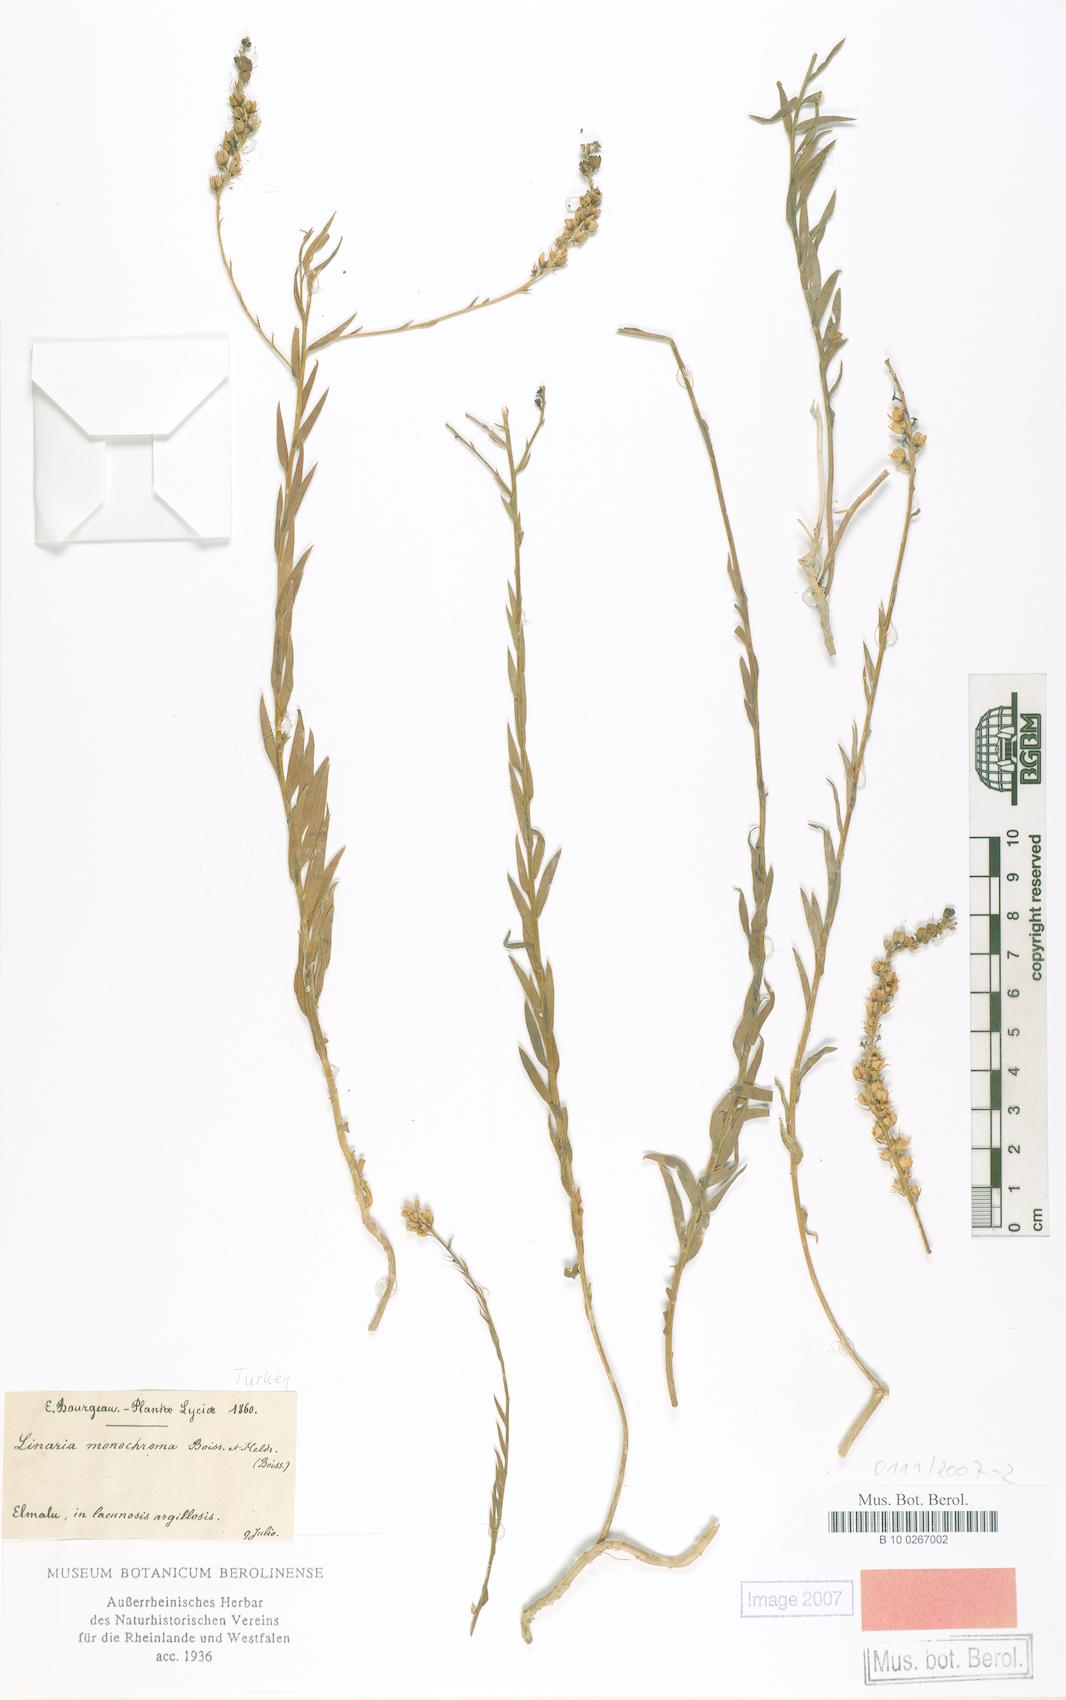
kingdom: Plantae
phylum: Tracheophyta
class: Magnoliopsida
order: Lamiales
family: Plantaginaceae
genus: Linaria
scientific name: Linaria genistifolia
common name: Broomleaf toadflax
